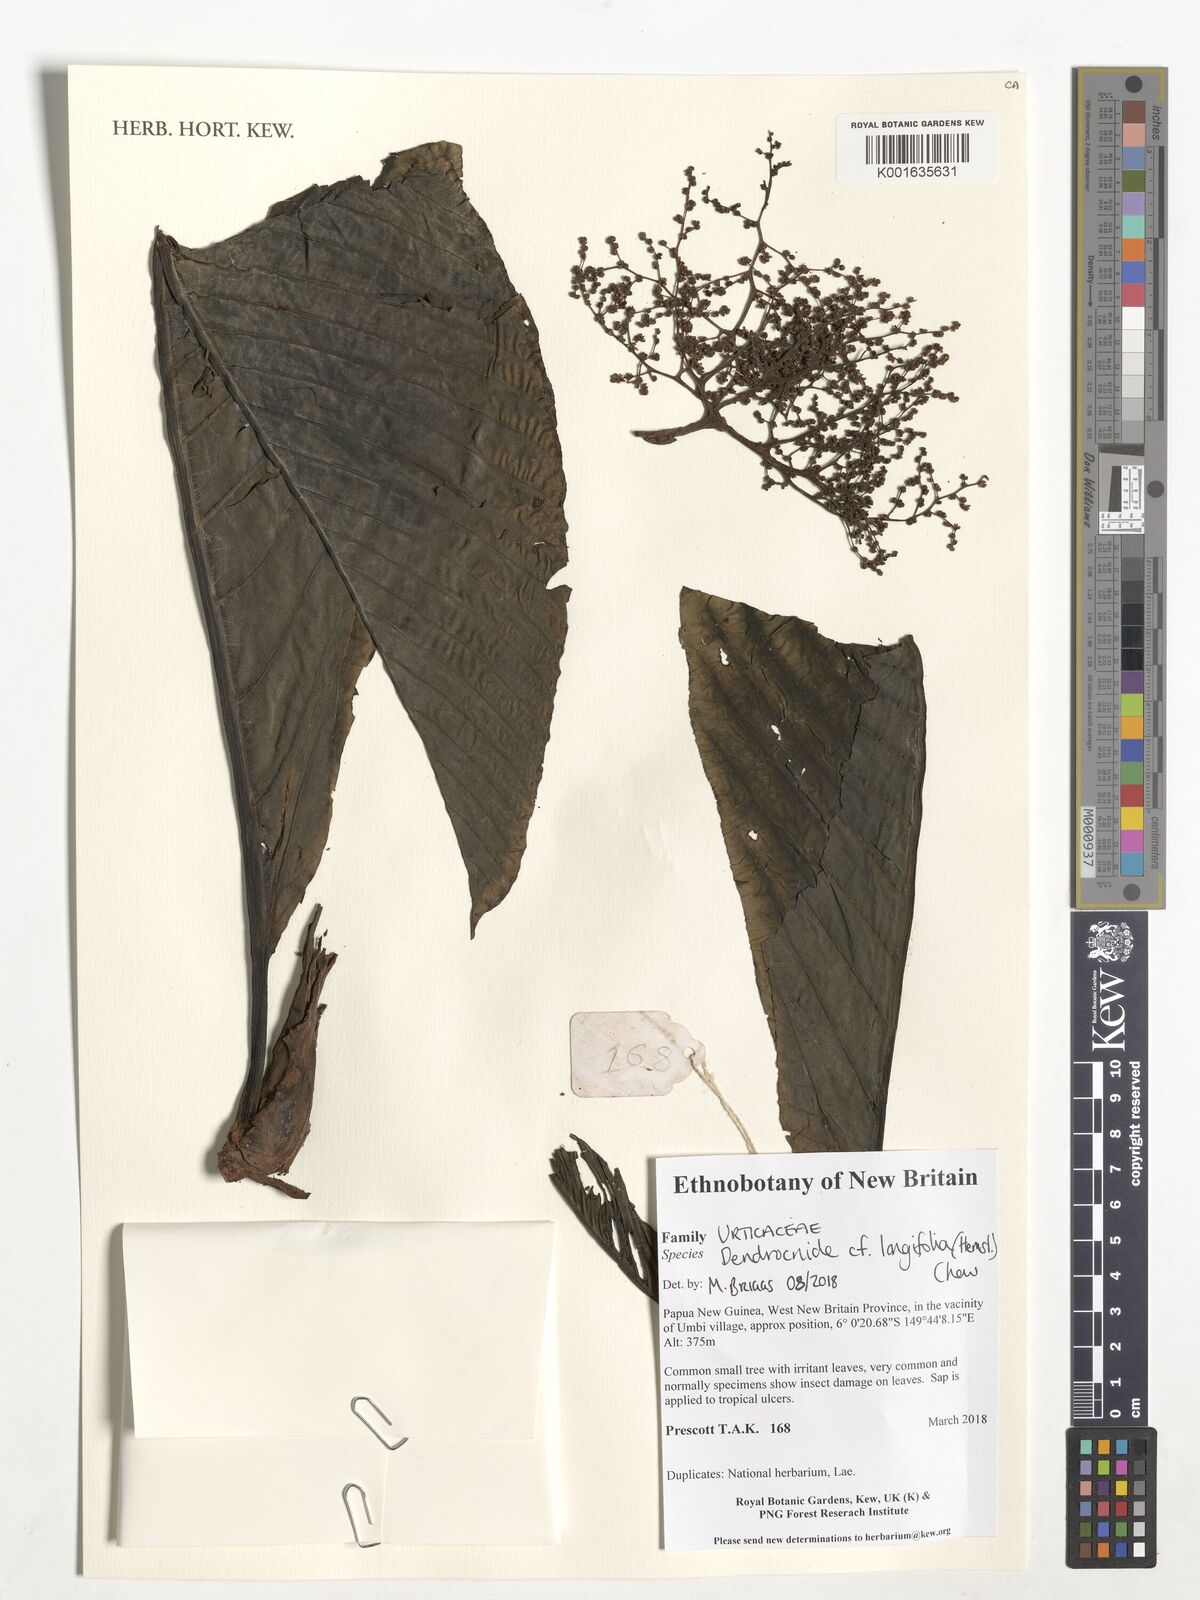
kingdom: Plantae
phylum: Tracheophyta
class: Magnoliopsida
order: Rosales
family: Urticaceae
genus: Dendrocnide
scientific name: Dendrocnide longifolia
